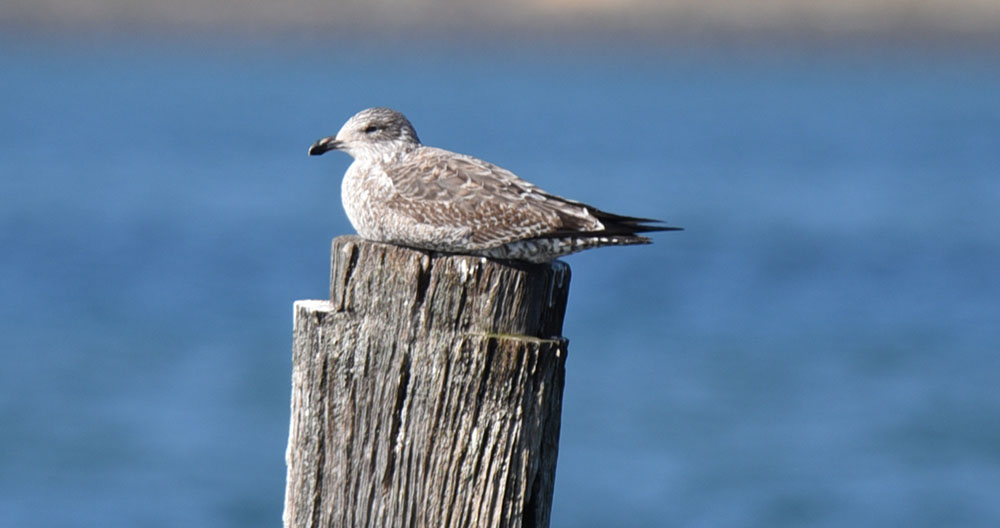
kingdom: Animalia
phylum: Chordata
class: Aves
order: Charadriiformes
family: Laridae
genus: Larus
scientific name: Larus dominicanus
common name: Kelp gull
